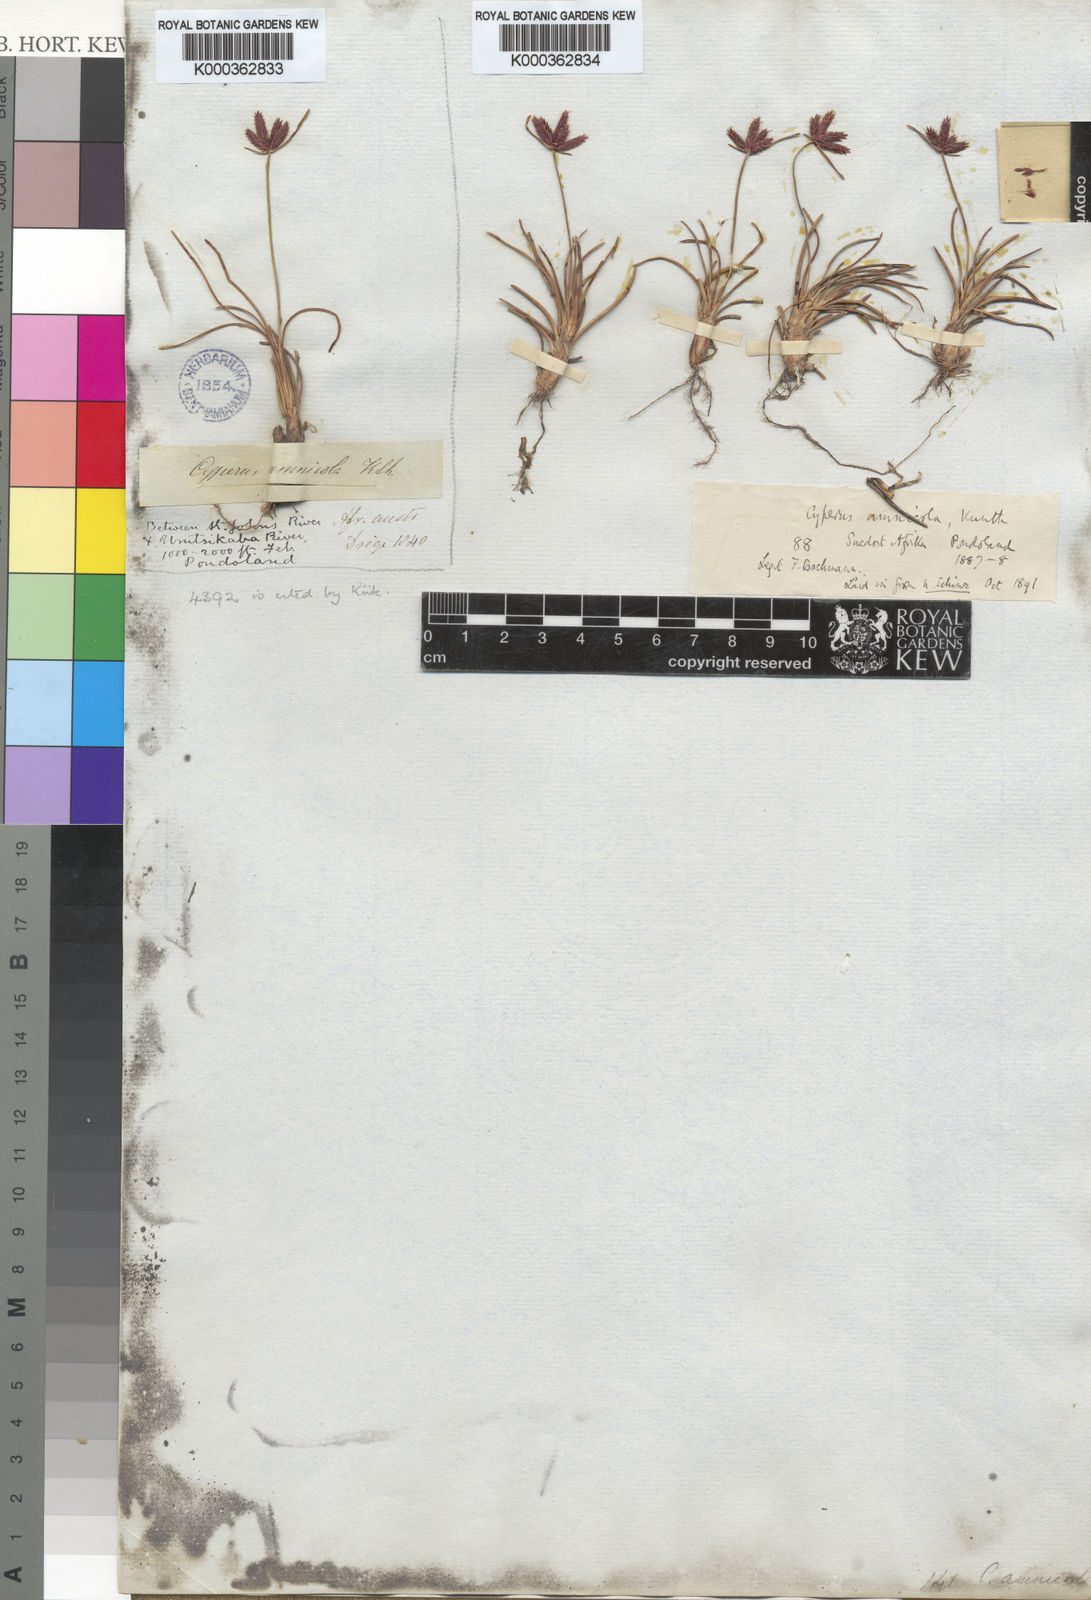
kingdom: Plantae
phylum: Tracheophyta
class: Liliopsida
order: Poales
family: Cyperaceae
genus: Cyperus
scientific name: Cyperus rupestris
